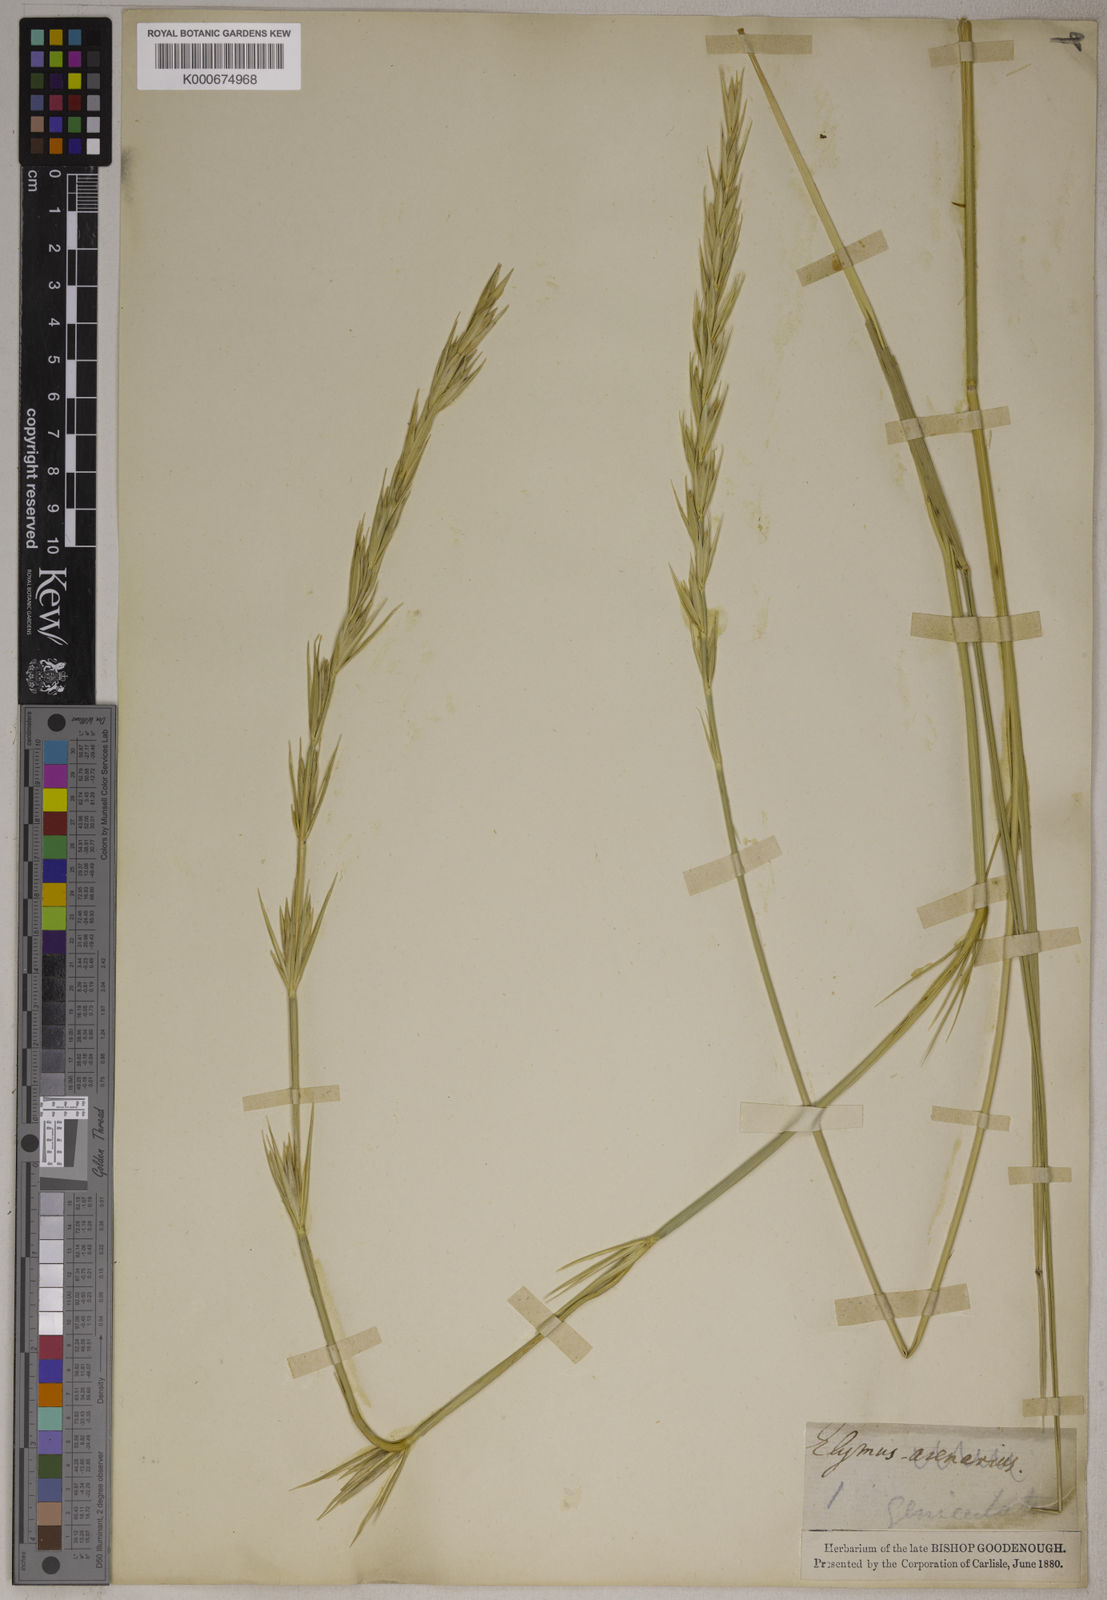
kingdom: Plantae
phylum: Tracheophyta
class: Liliopsida
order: Poales
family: Poaceae
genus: Leymus
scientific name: Leymus arenarius
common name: Lyme-grass
